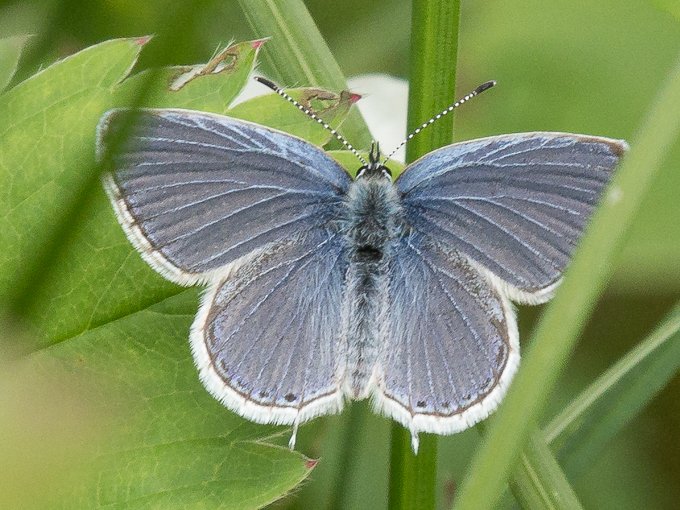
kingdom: Animalia
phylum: Arthropoda
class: Insecta
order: Lepidoptera
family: Lycaenidae
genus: Elkalyce
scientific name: Elkalyce amyntula
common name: Western Tailed-Blue
